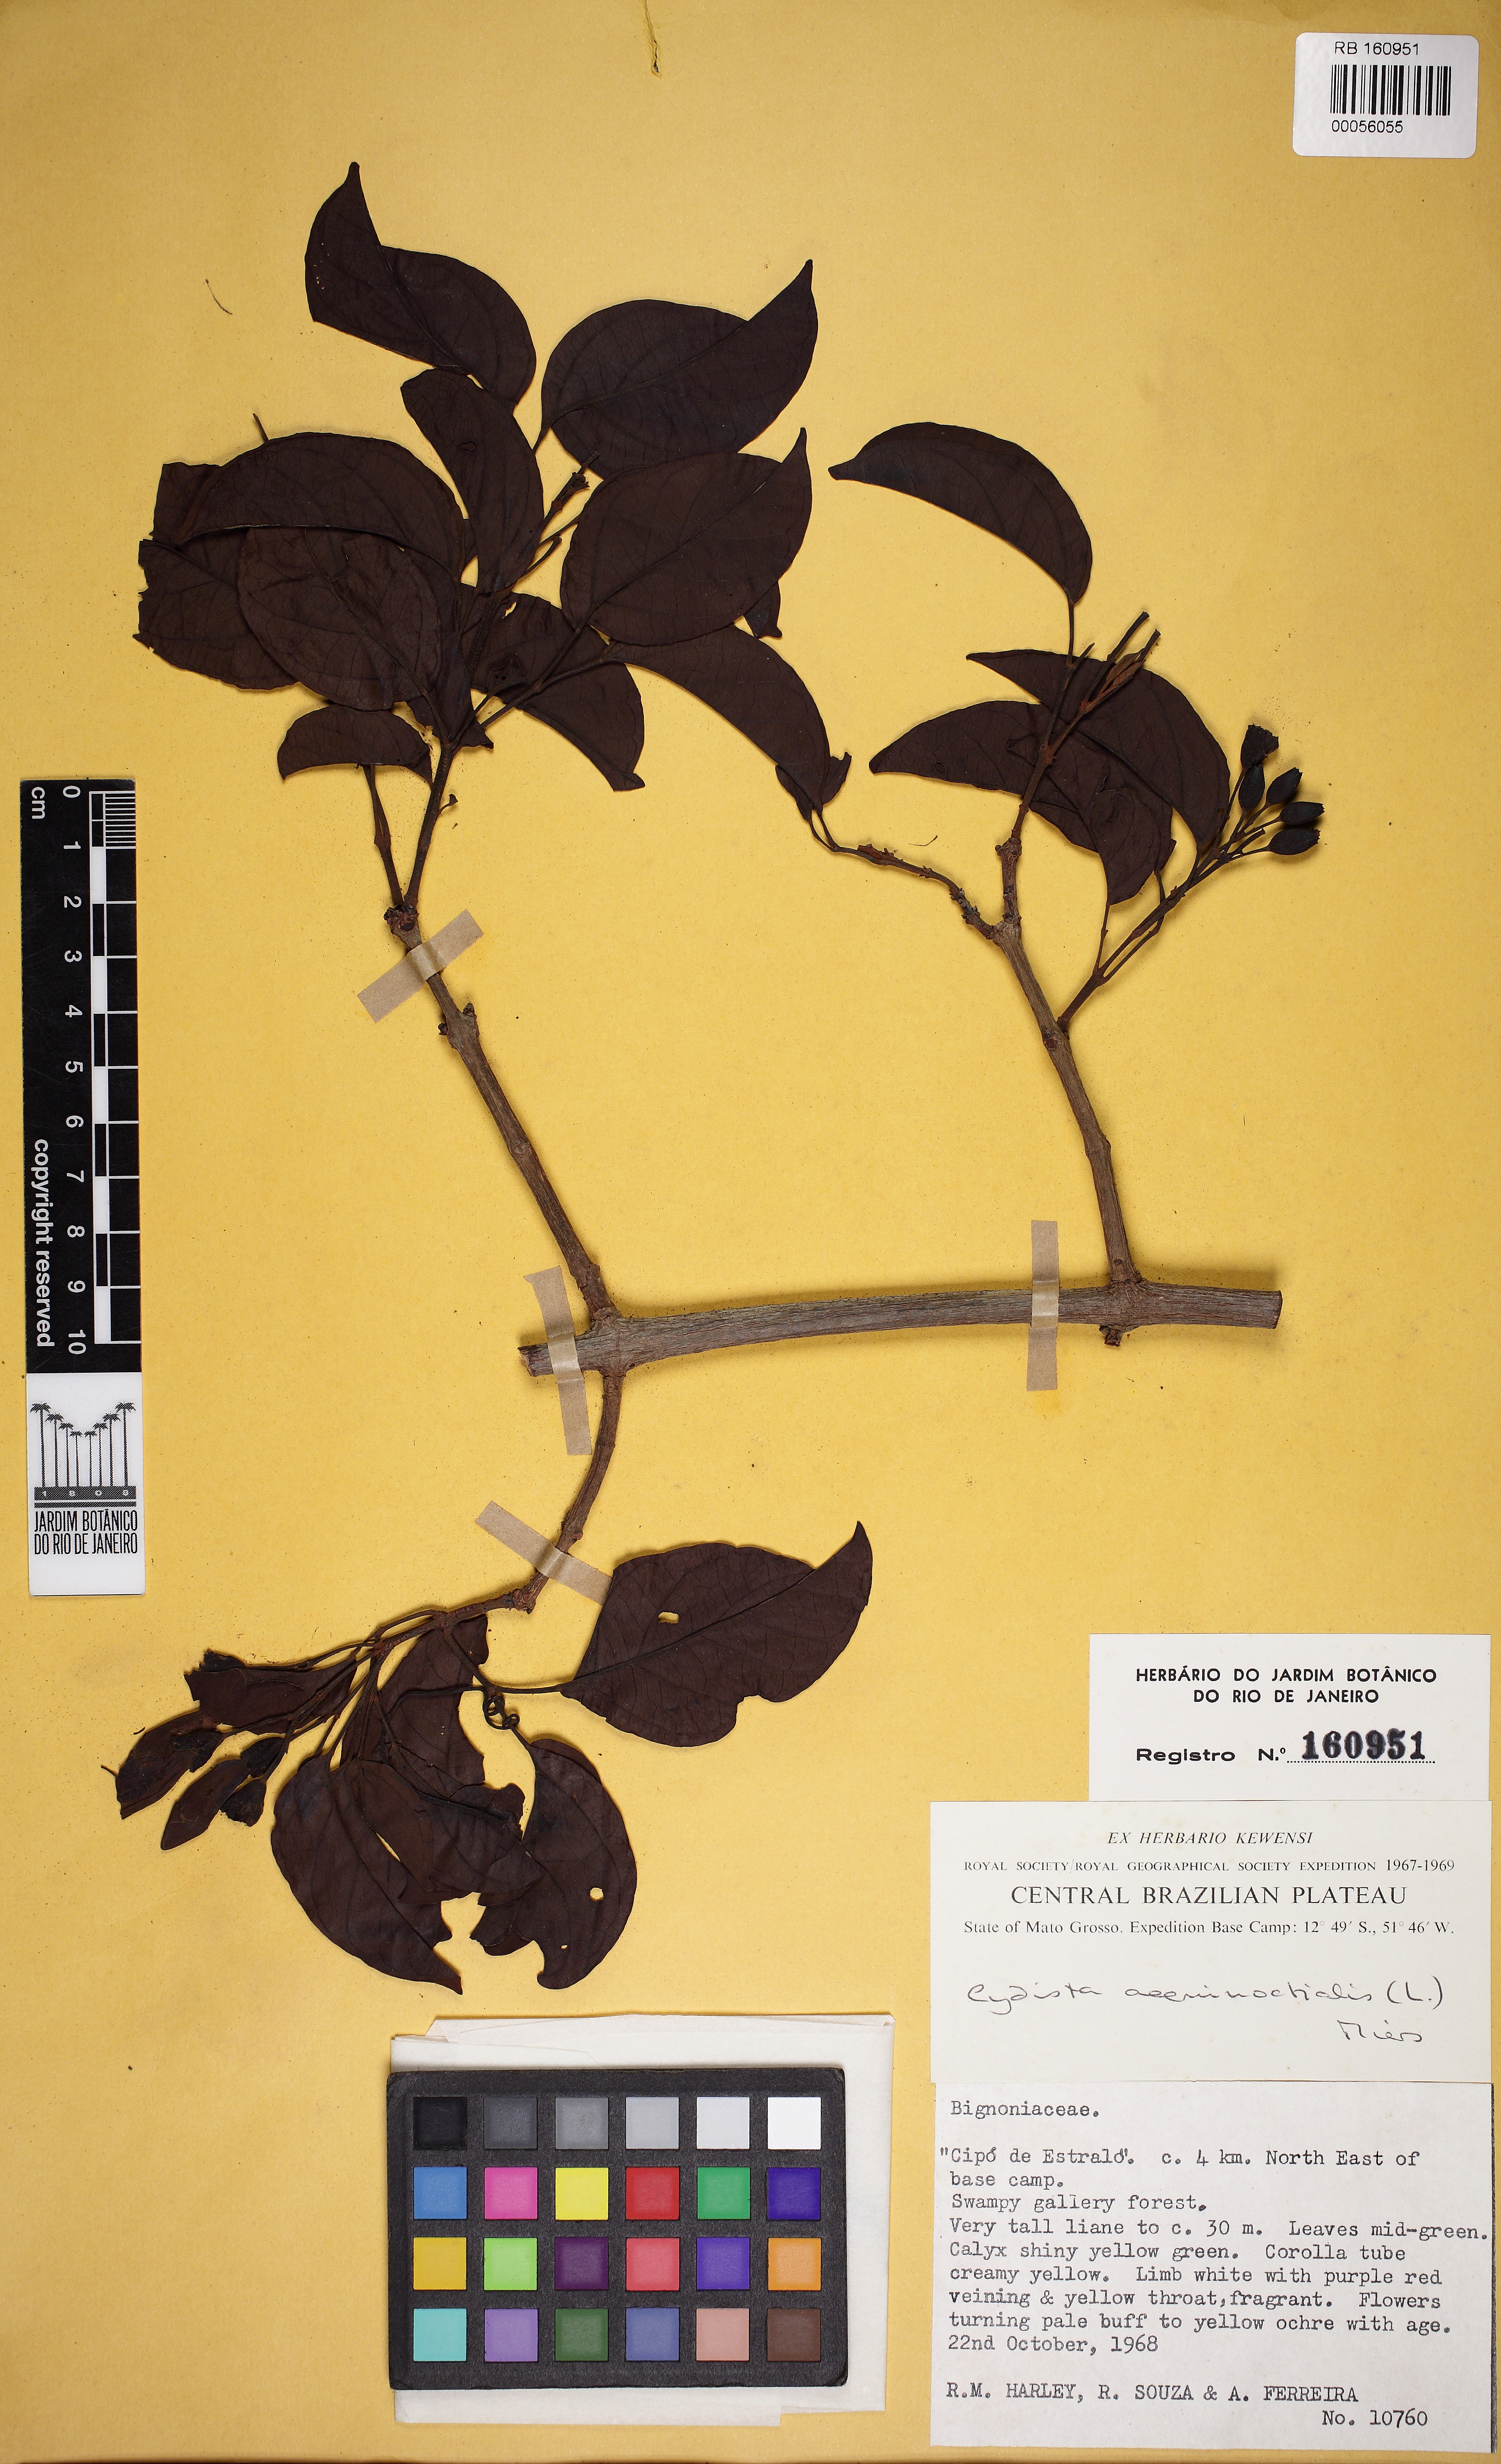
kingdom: Plantae
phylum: Tracheophyta
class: Magnoliopsida
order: Lamiales
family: Bignoniaceae
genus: Bignonia
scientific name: Bignonia aequinoctialis
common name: Garlicvine
